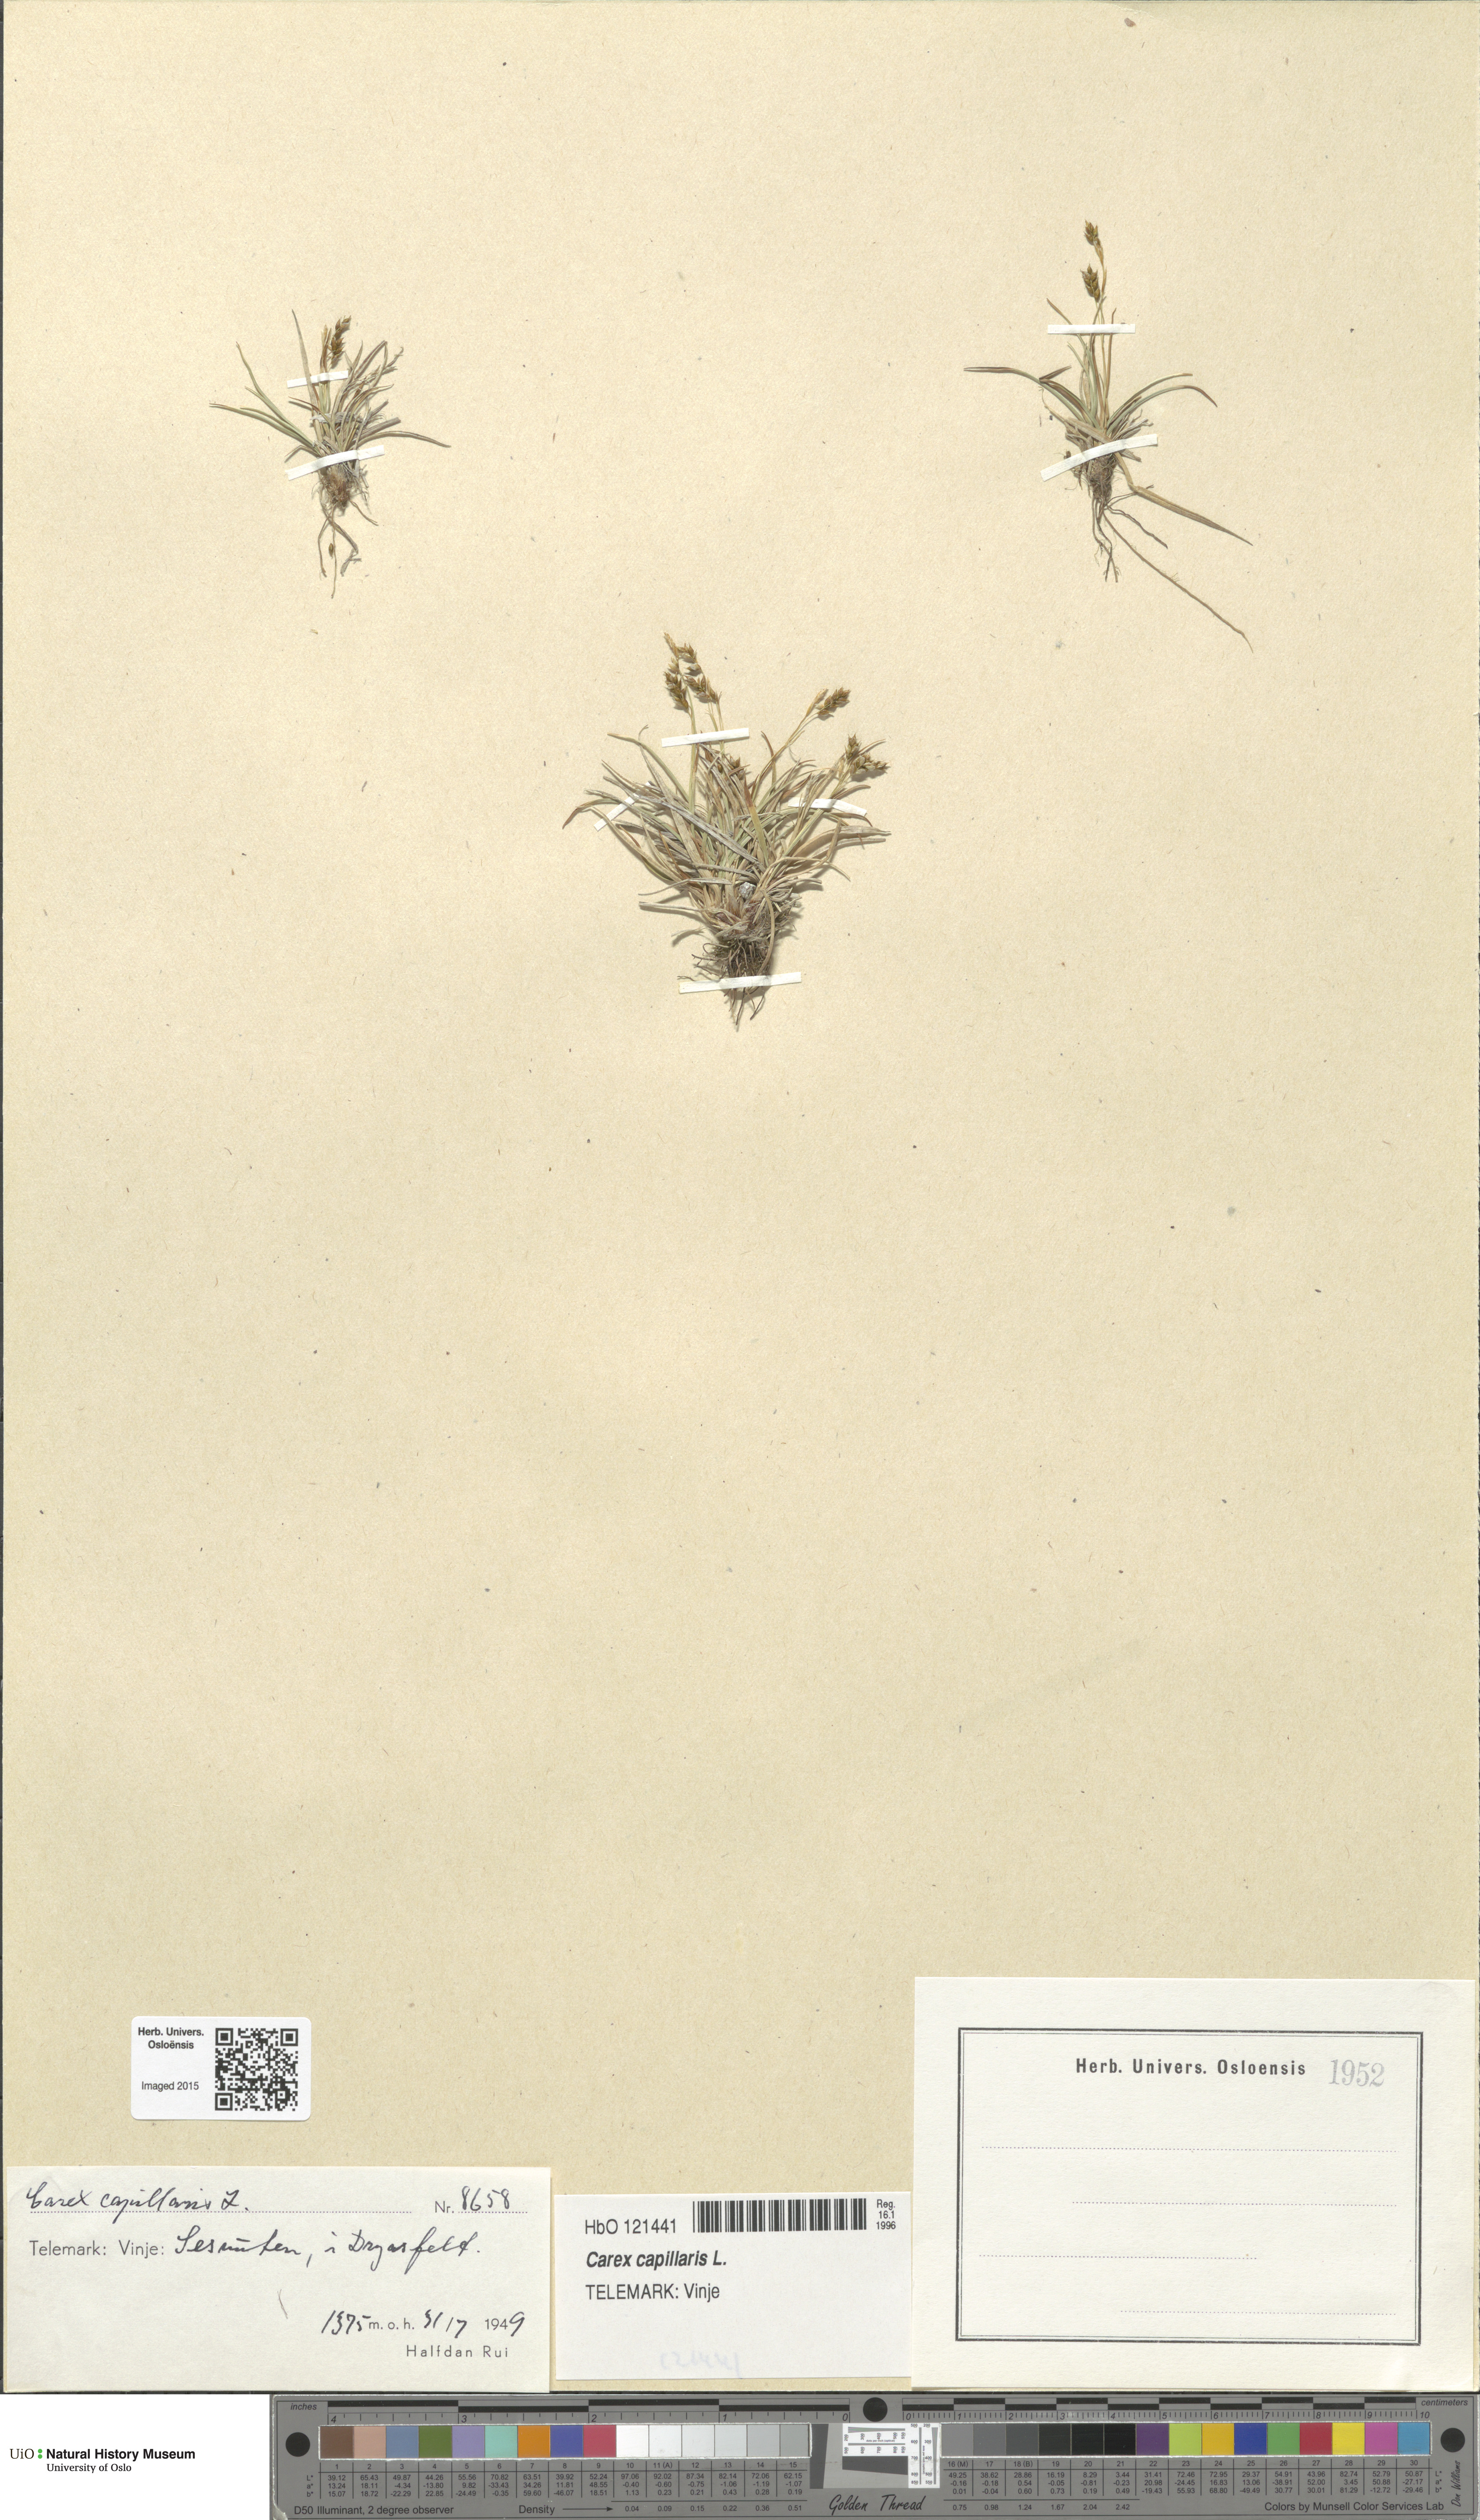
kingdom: Plantae
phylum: Tracheophyta
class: Liliopsida
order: Poales
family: Cyperaceae
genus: Carex
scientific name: Carex capillaris
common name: Hair sedge
